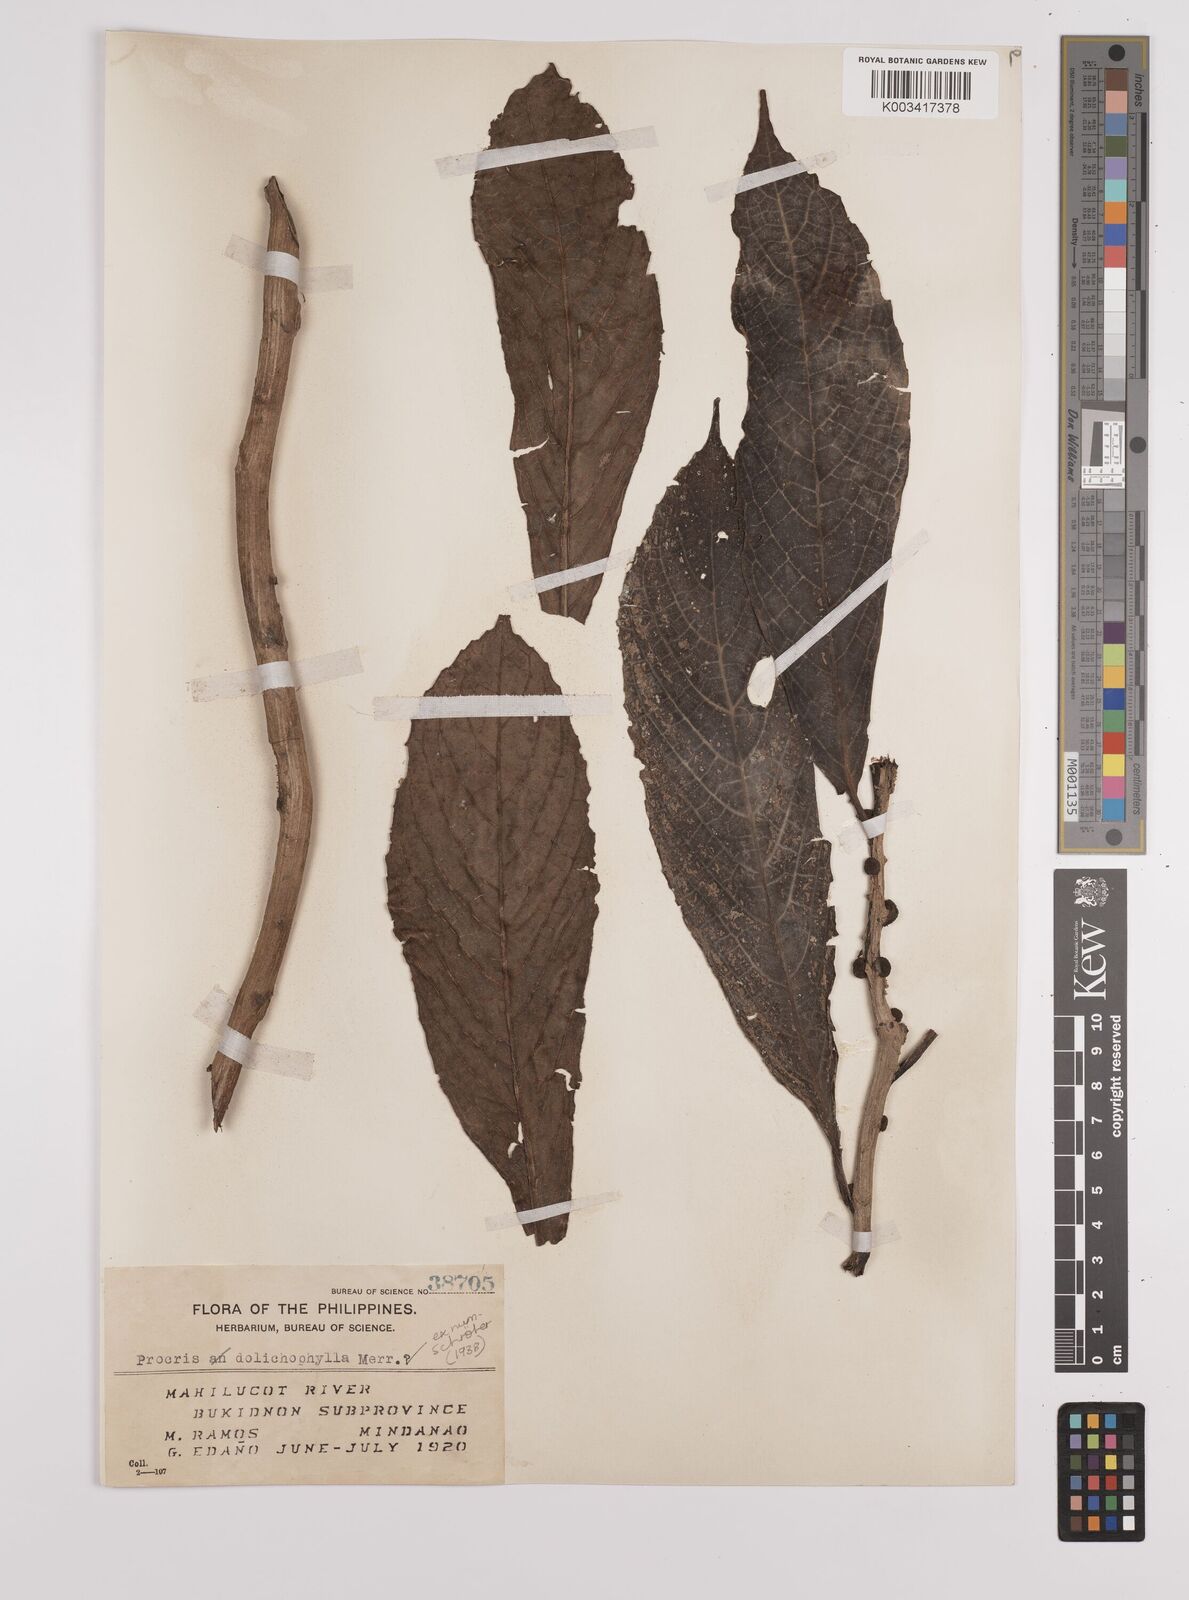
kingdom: Plantae
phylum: Tracheophyta
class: Magnoliopsida
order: Rosales
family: Urticaceae
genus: Procris
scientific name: Procris dolichophylla
